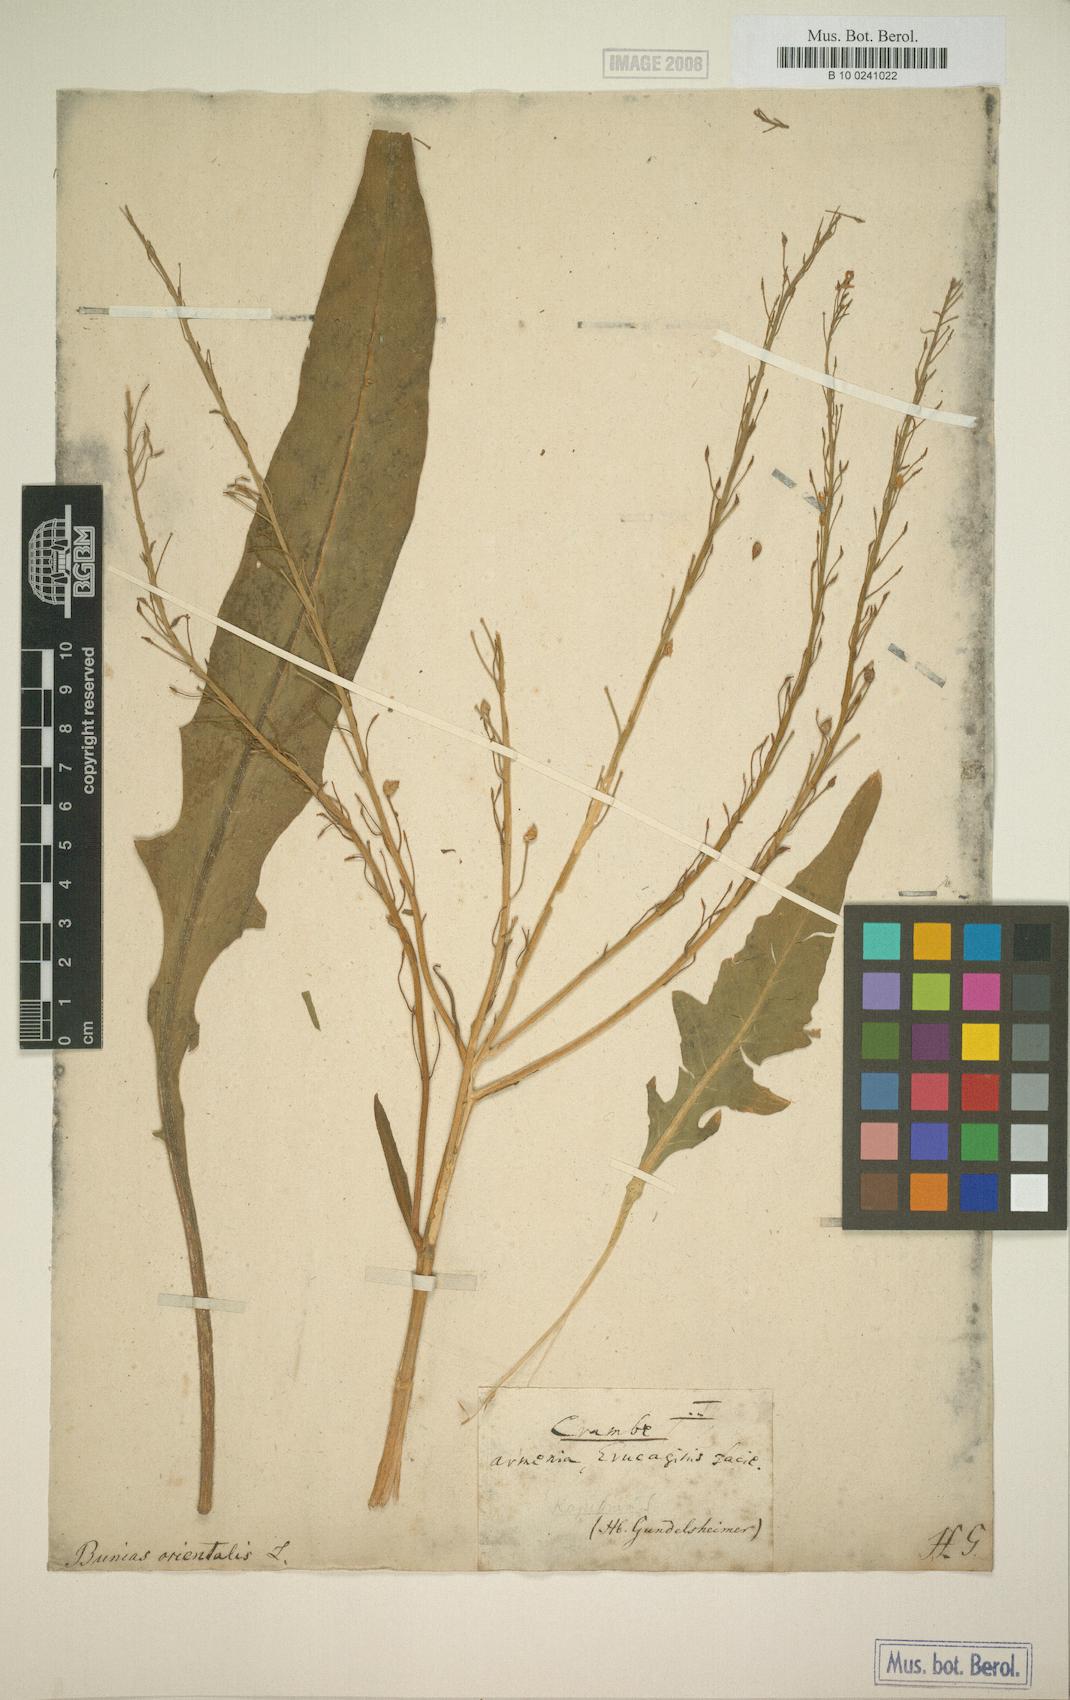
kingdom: Plantae
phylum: Tracheophyta
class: Magnoliopsida
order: Brassicales
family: Brassicaceae
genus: Bunias
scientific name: Bunias orientalis
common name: Warty-cabbage
